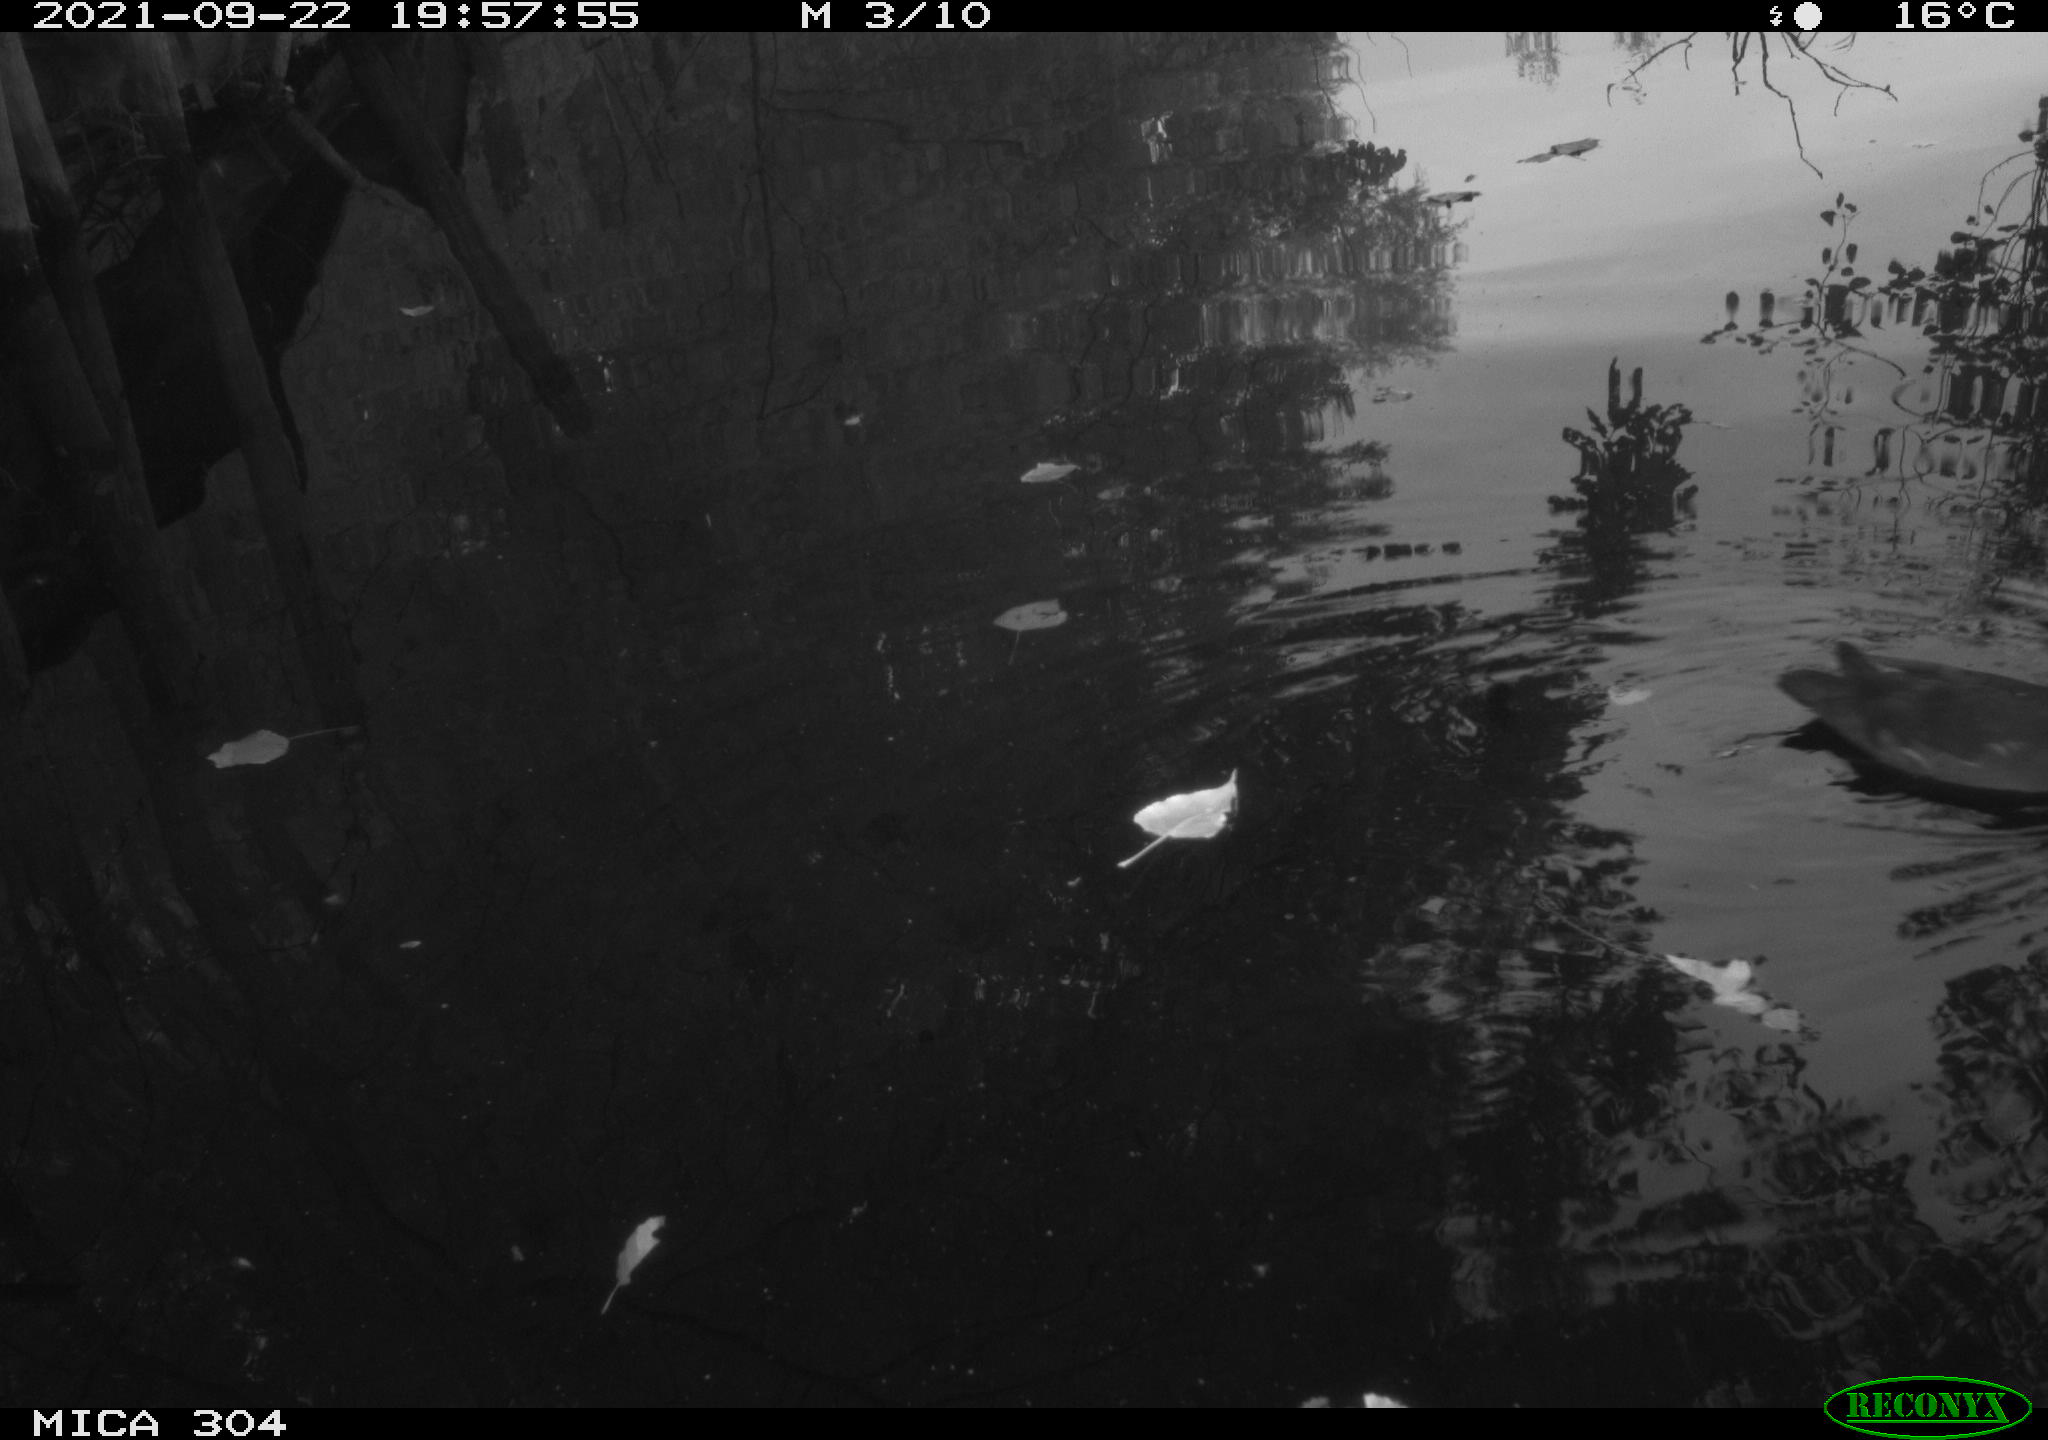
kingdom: Animalia
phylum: Chordata
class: Aves
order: Gruiformes
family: Rallidae
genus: Gallinula
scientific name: Gallinula chloropus
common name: Common moorhen
